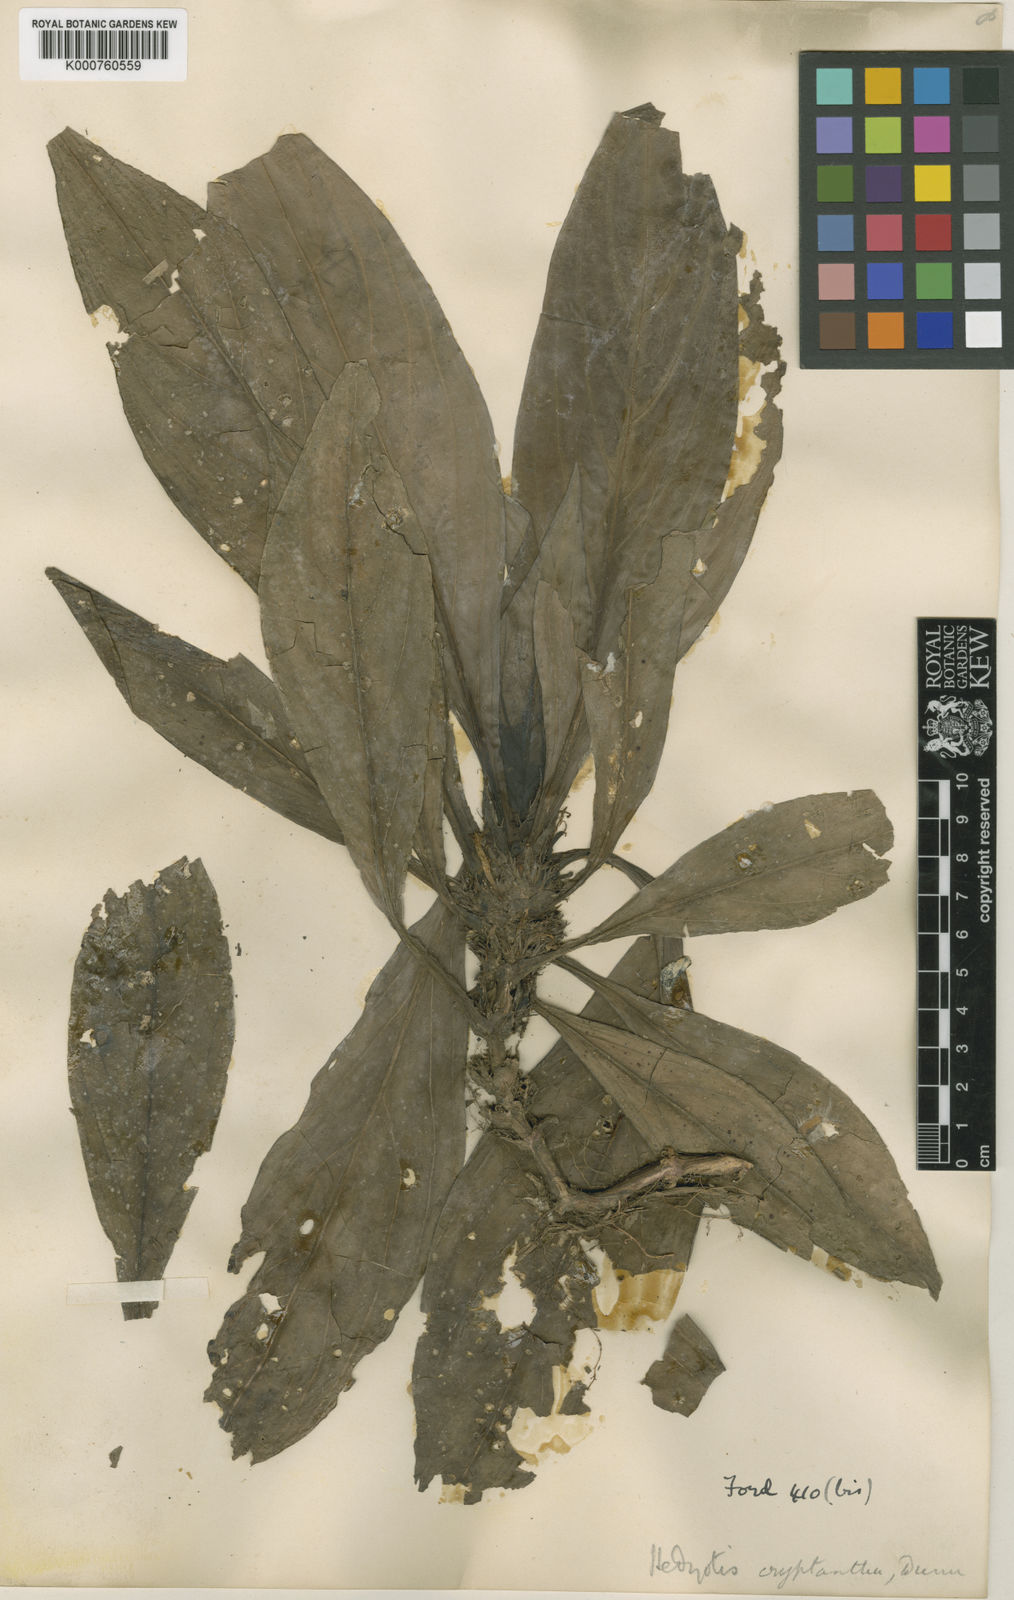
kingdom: Plantae
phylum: Tracheophyta
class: Magnoliopsida
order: Gentianales
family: Rubiaceae
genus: Hedyotis
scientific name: Hedyotis cryptantha
